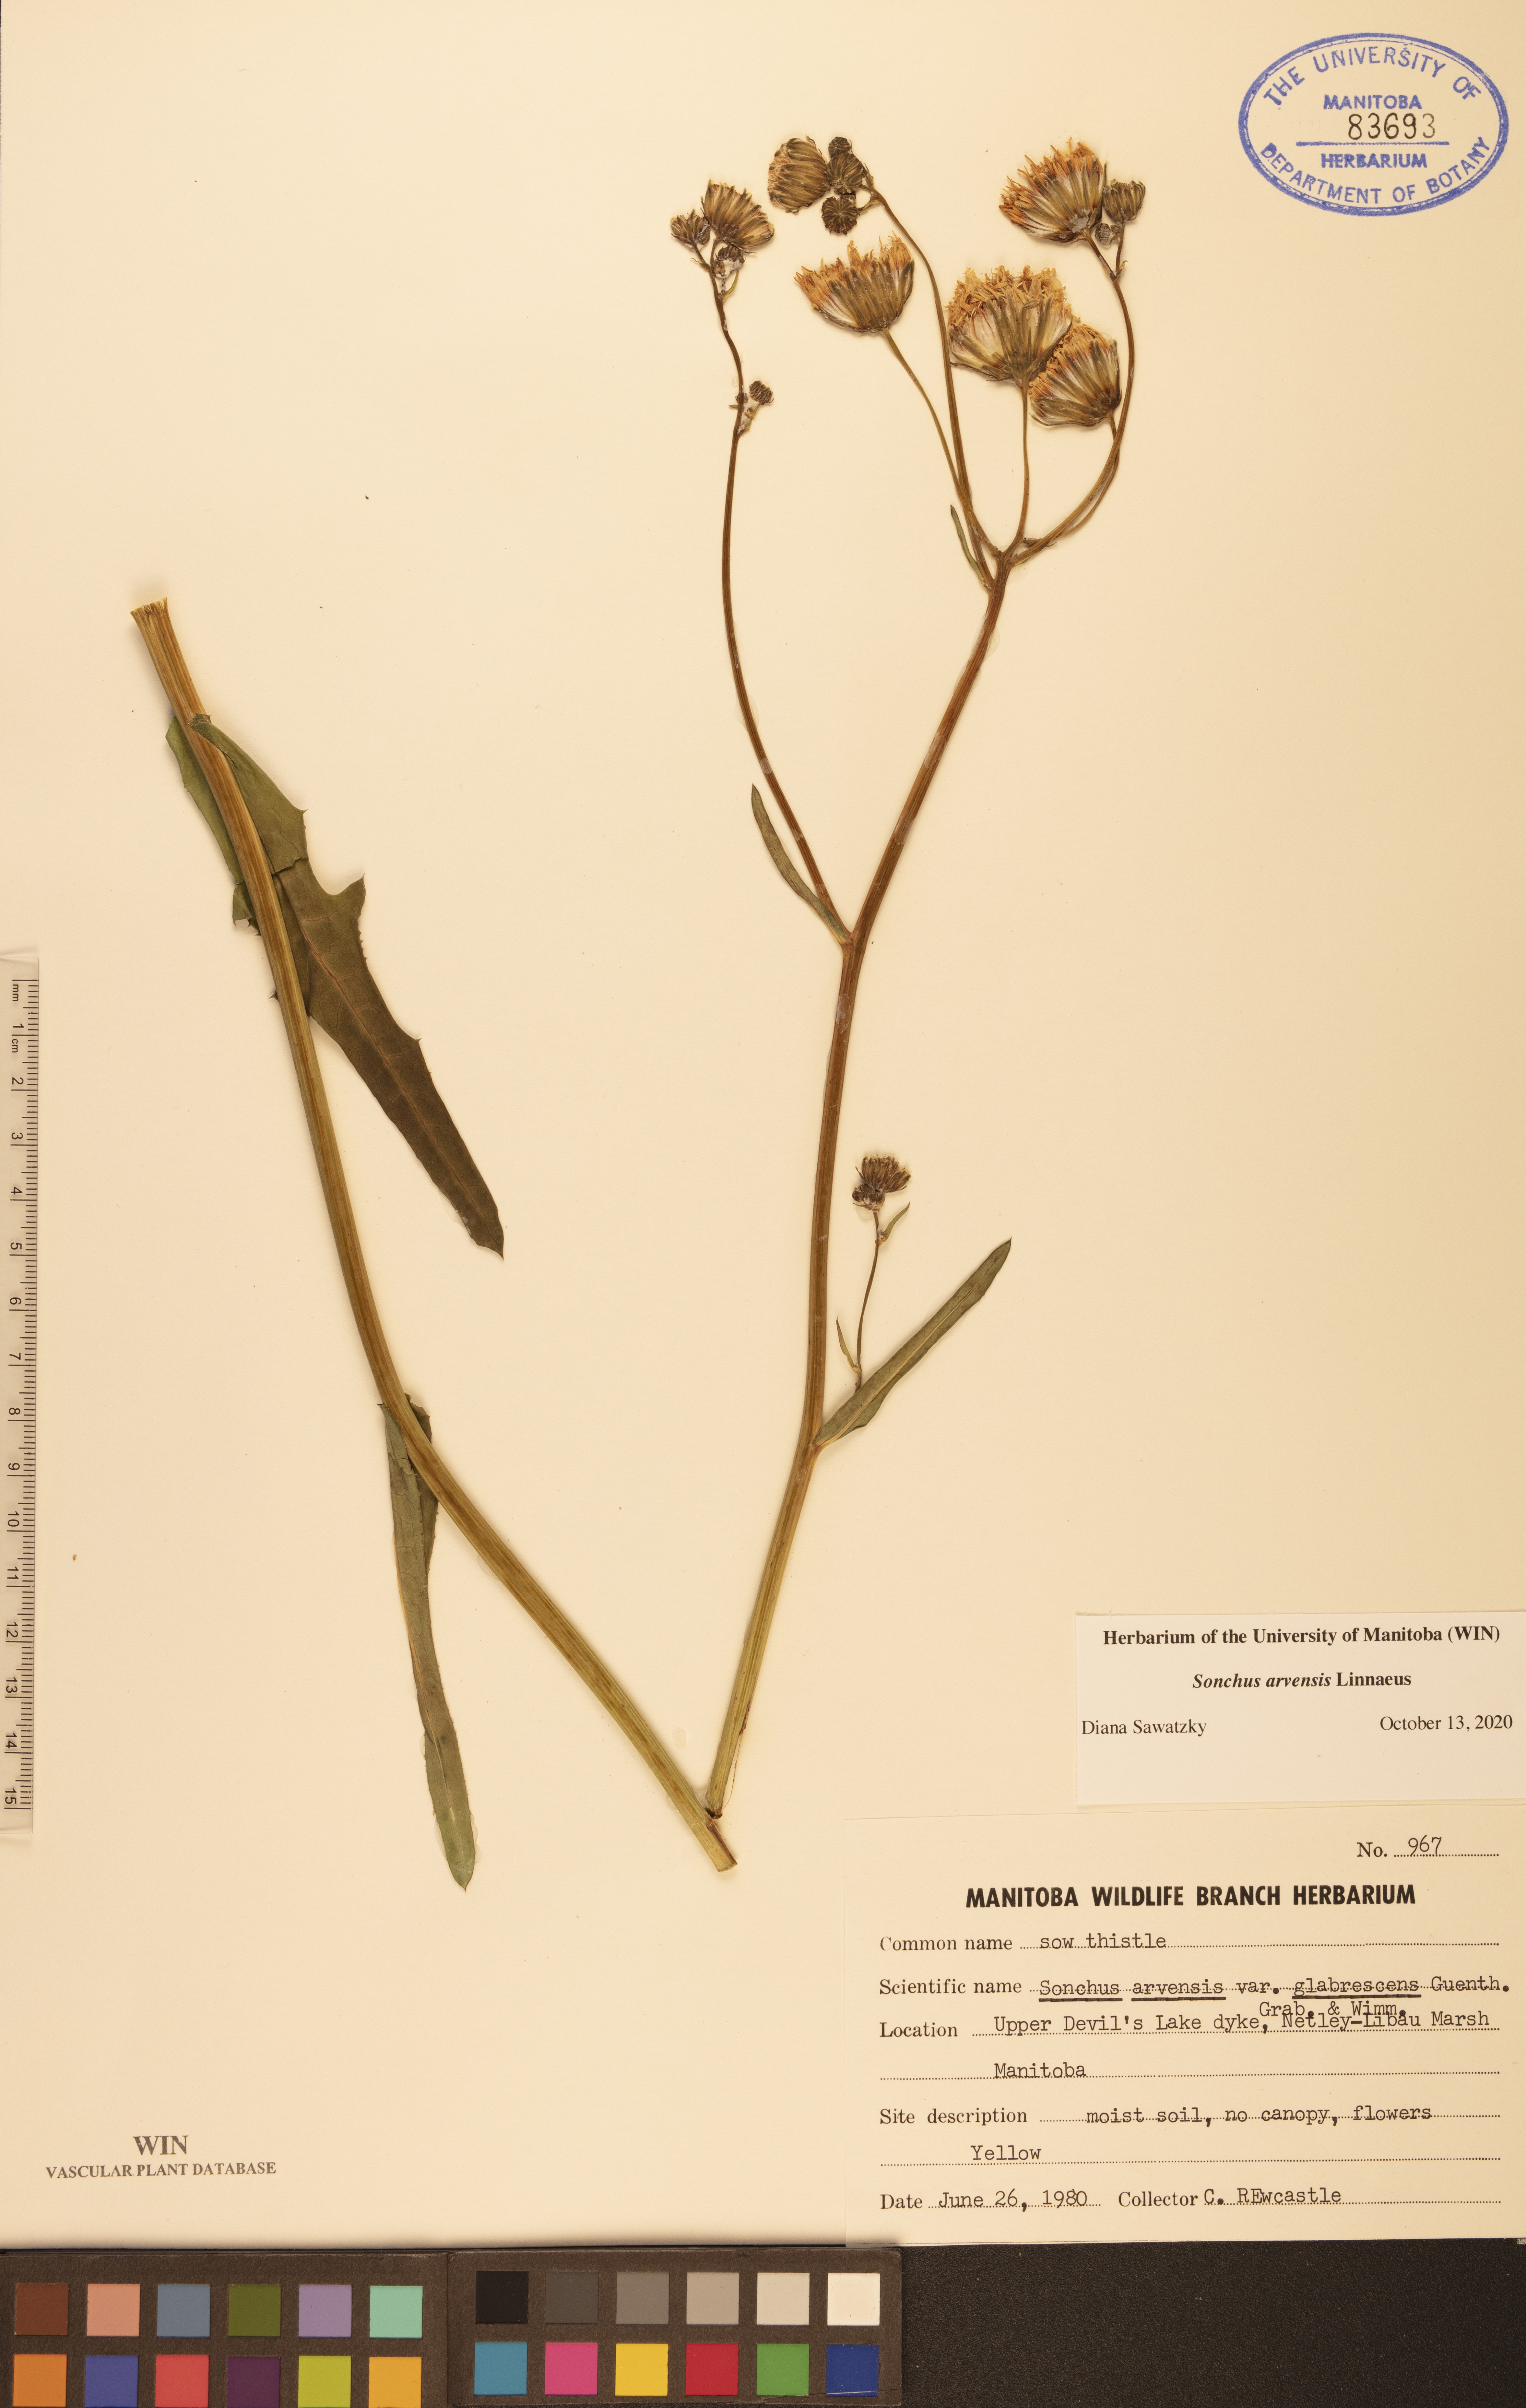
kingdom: Plantae
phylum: Tracheophyta
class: Magnoliopsida
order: Asterales
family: Asteraceae
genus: Sonchus
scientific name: Sonchus arvensis
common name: Perennial sow-thistle
